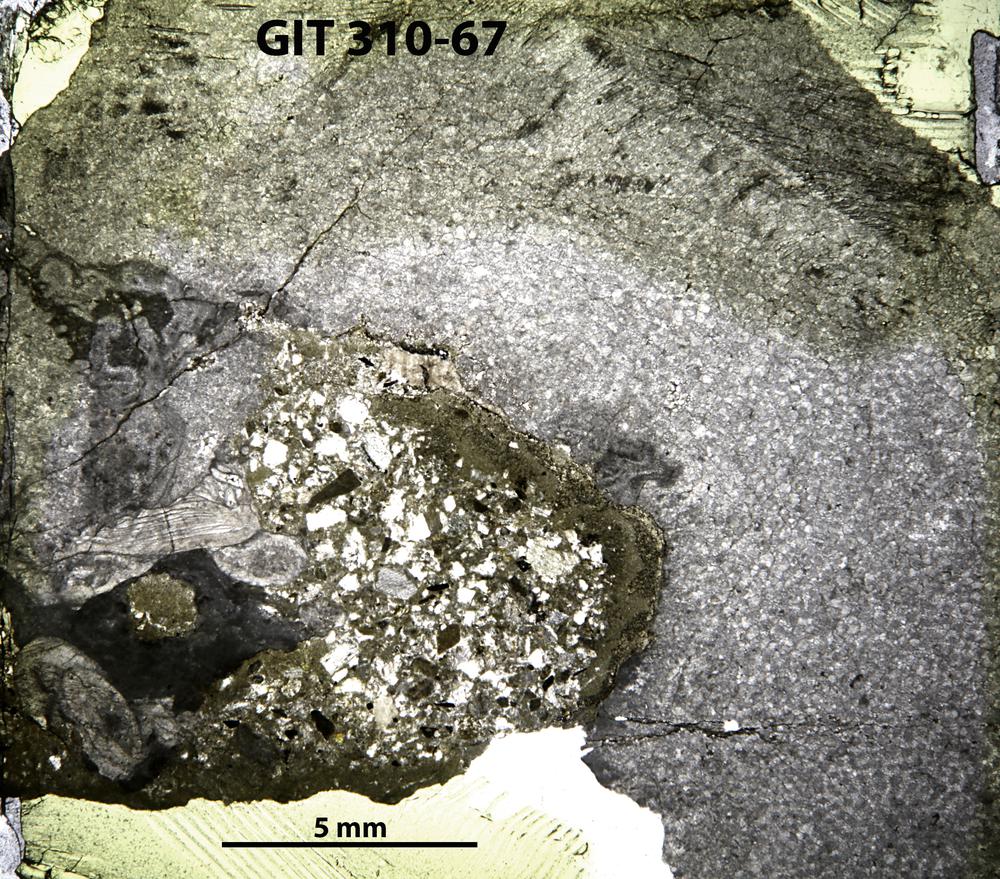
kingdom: Animalia
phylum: Porifera
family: Labechiidae
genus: Labechia
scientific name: Labechia
